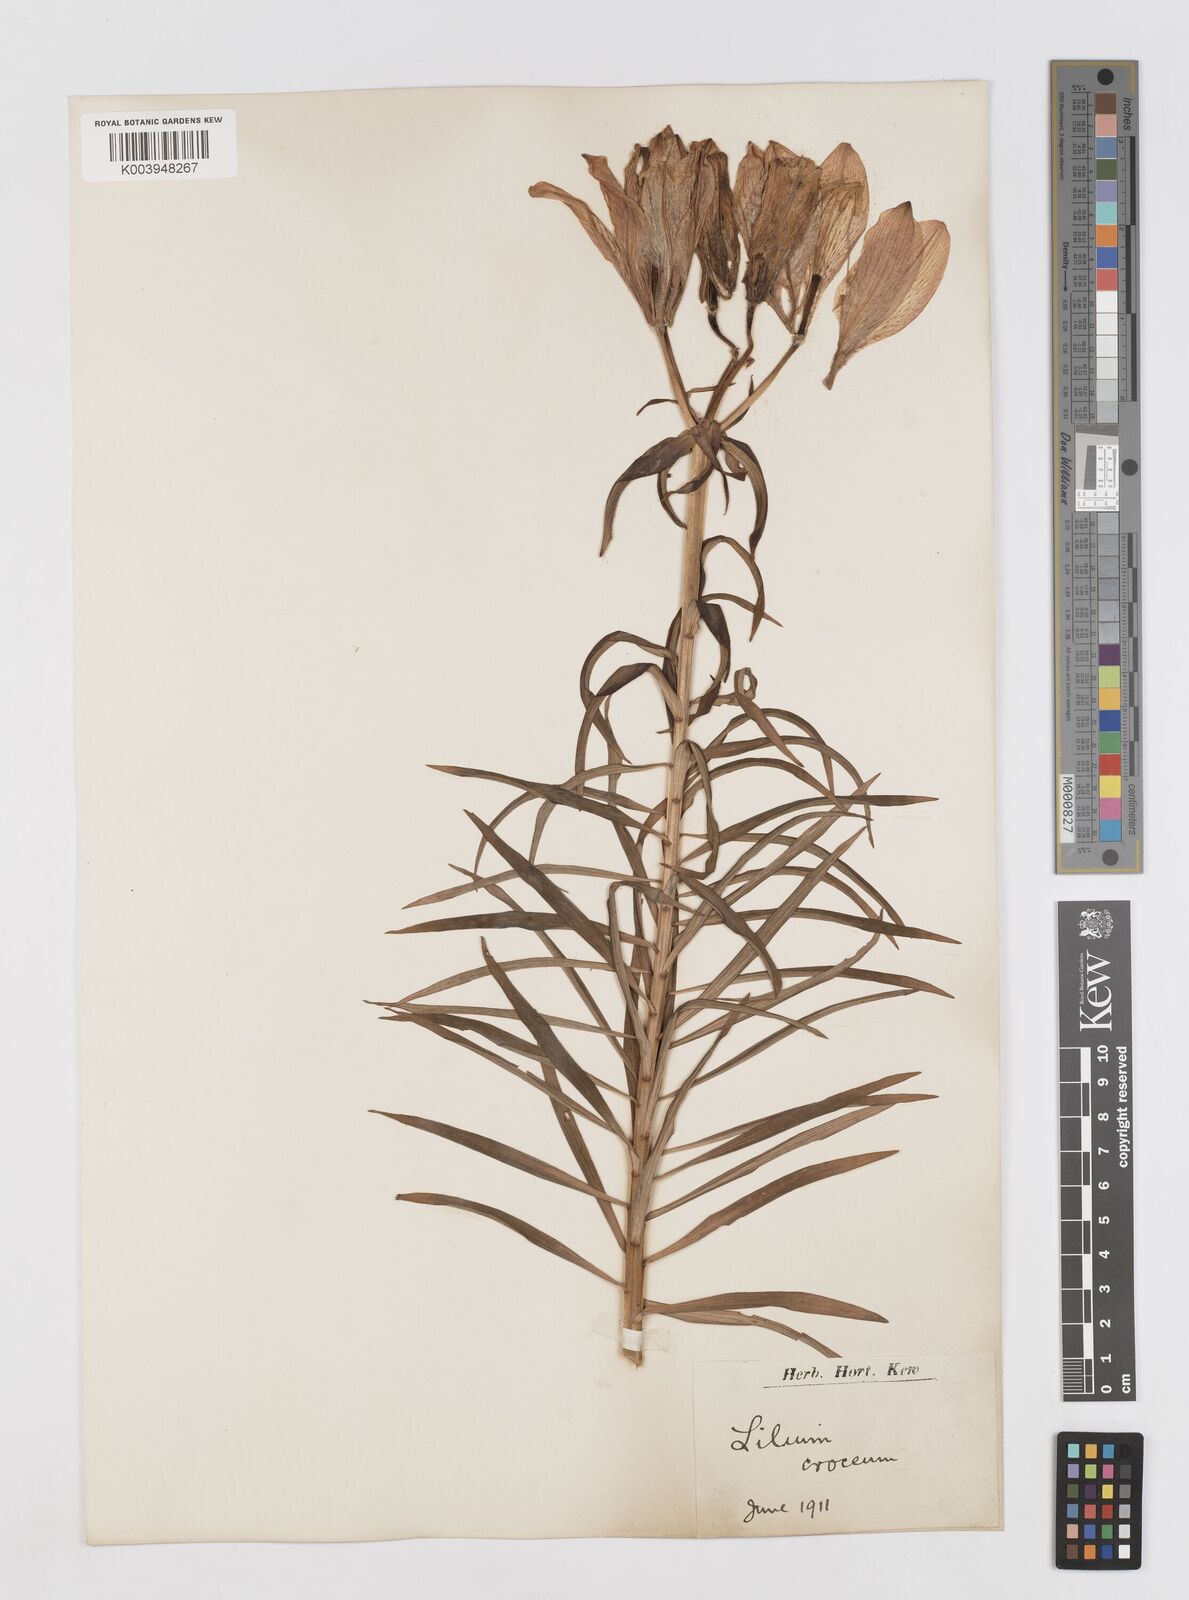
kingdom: Plantae
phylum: Tracheophyta
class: Liliopsida
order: Liliales
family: Liliaceae
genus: Lilium
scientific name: Lilium bulbiferum
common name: Orange lily
